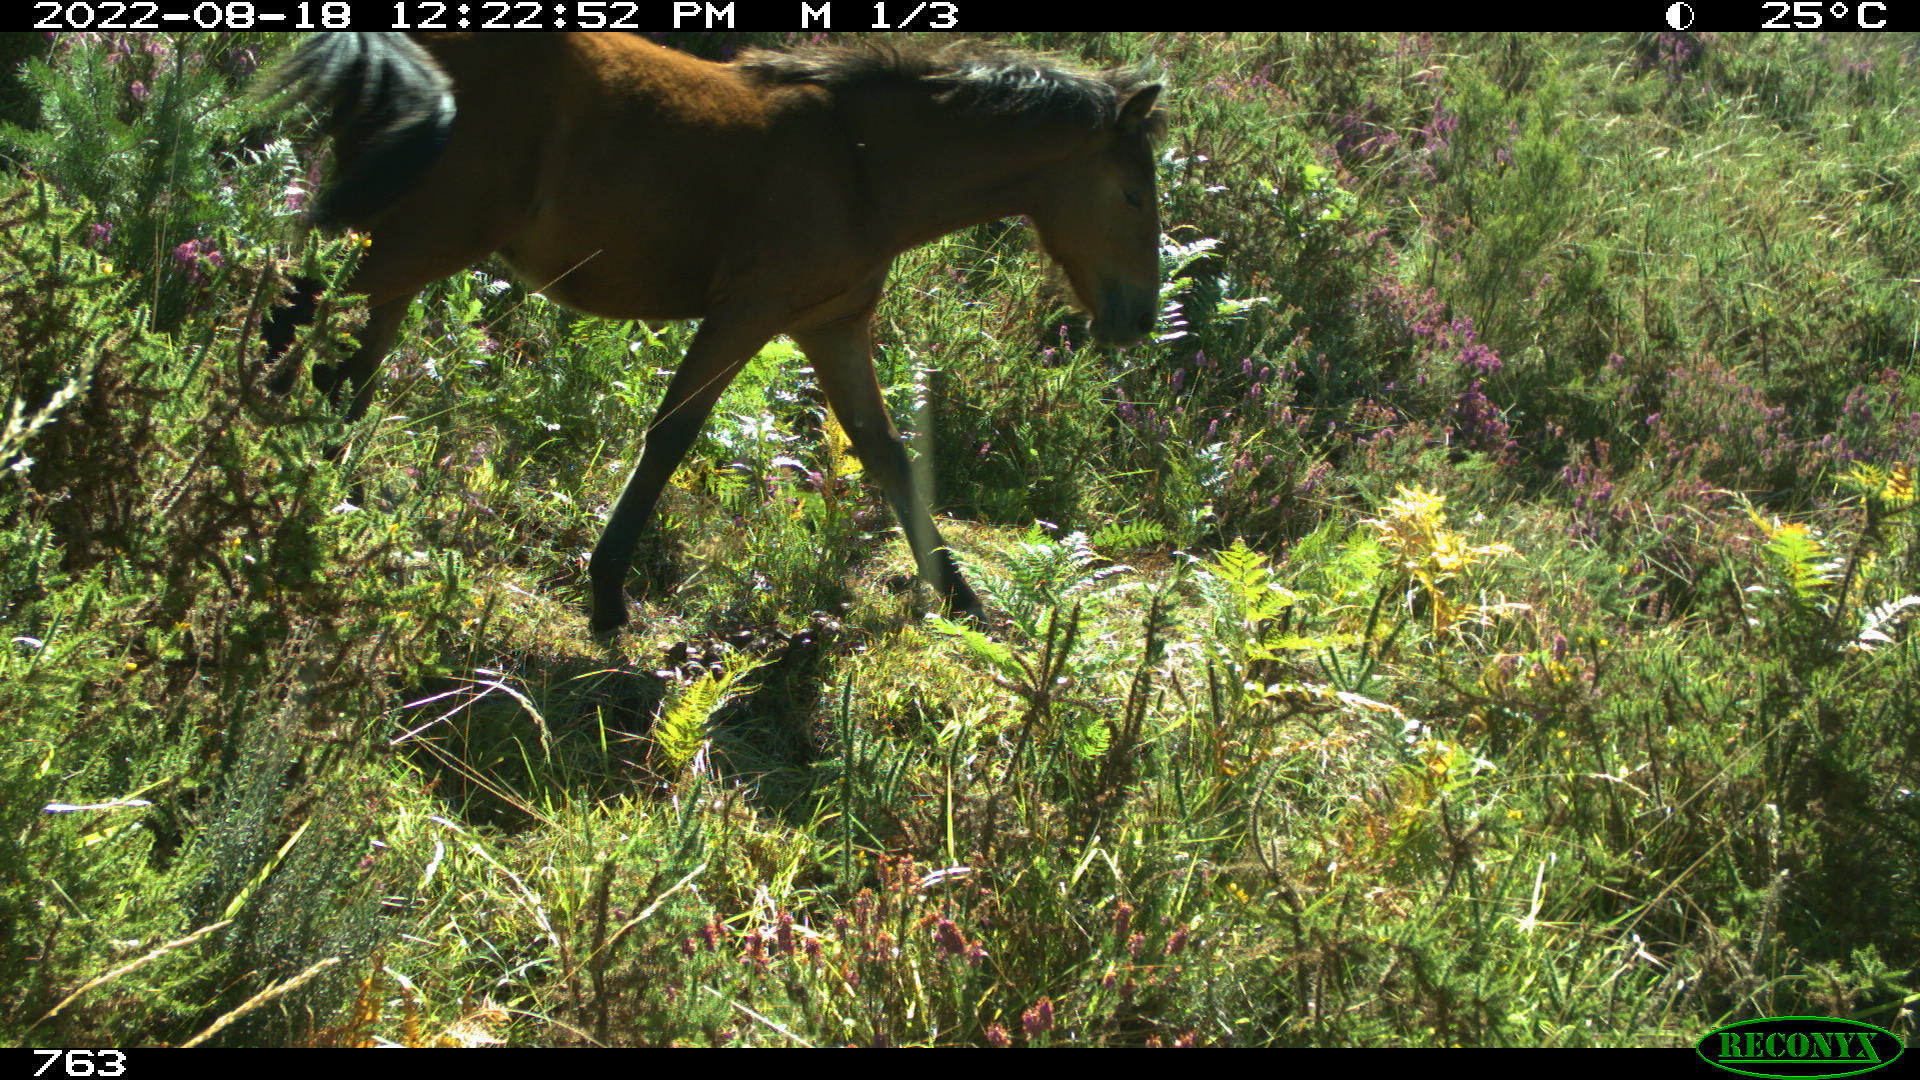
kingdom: Animalia
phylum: Chordata
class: Mammalia
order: Perissodactyla
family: Equidae
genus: Equus
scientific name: Equus caballus
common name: Horse
